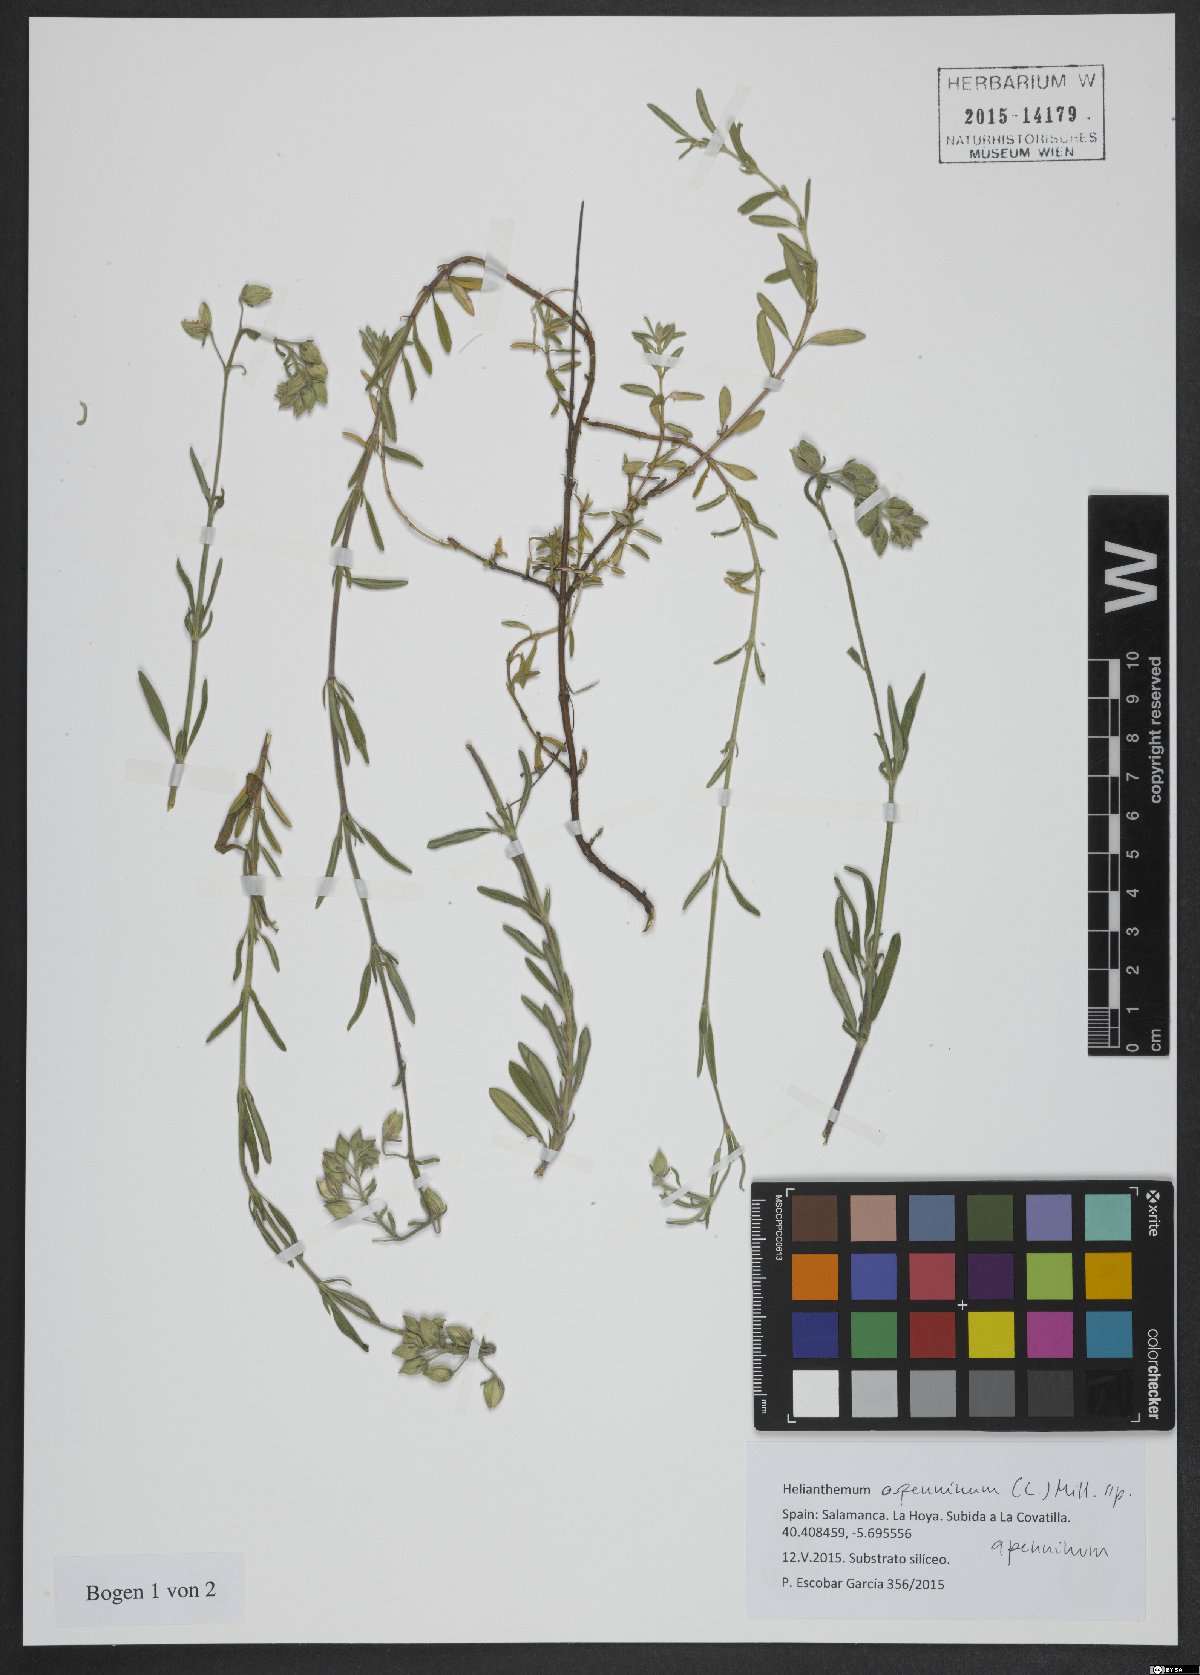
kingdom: Plantae
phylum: Tracheophyta
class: Magnoliopsida
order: Malvales
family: Cistaceae
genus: Helianthemum
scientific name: Helianthemum apenninum
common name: White rock-rose
